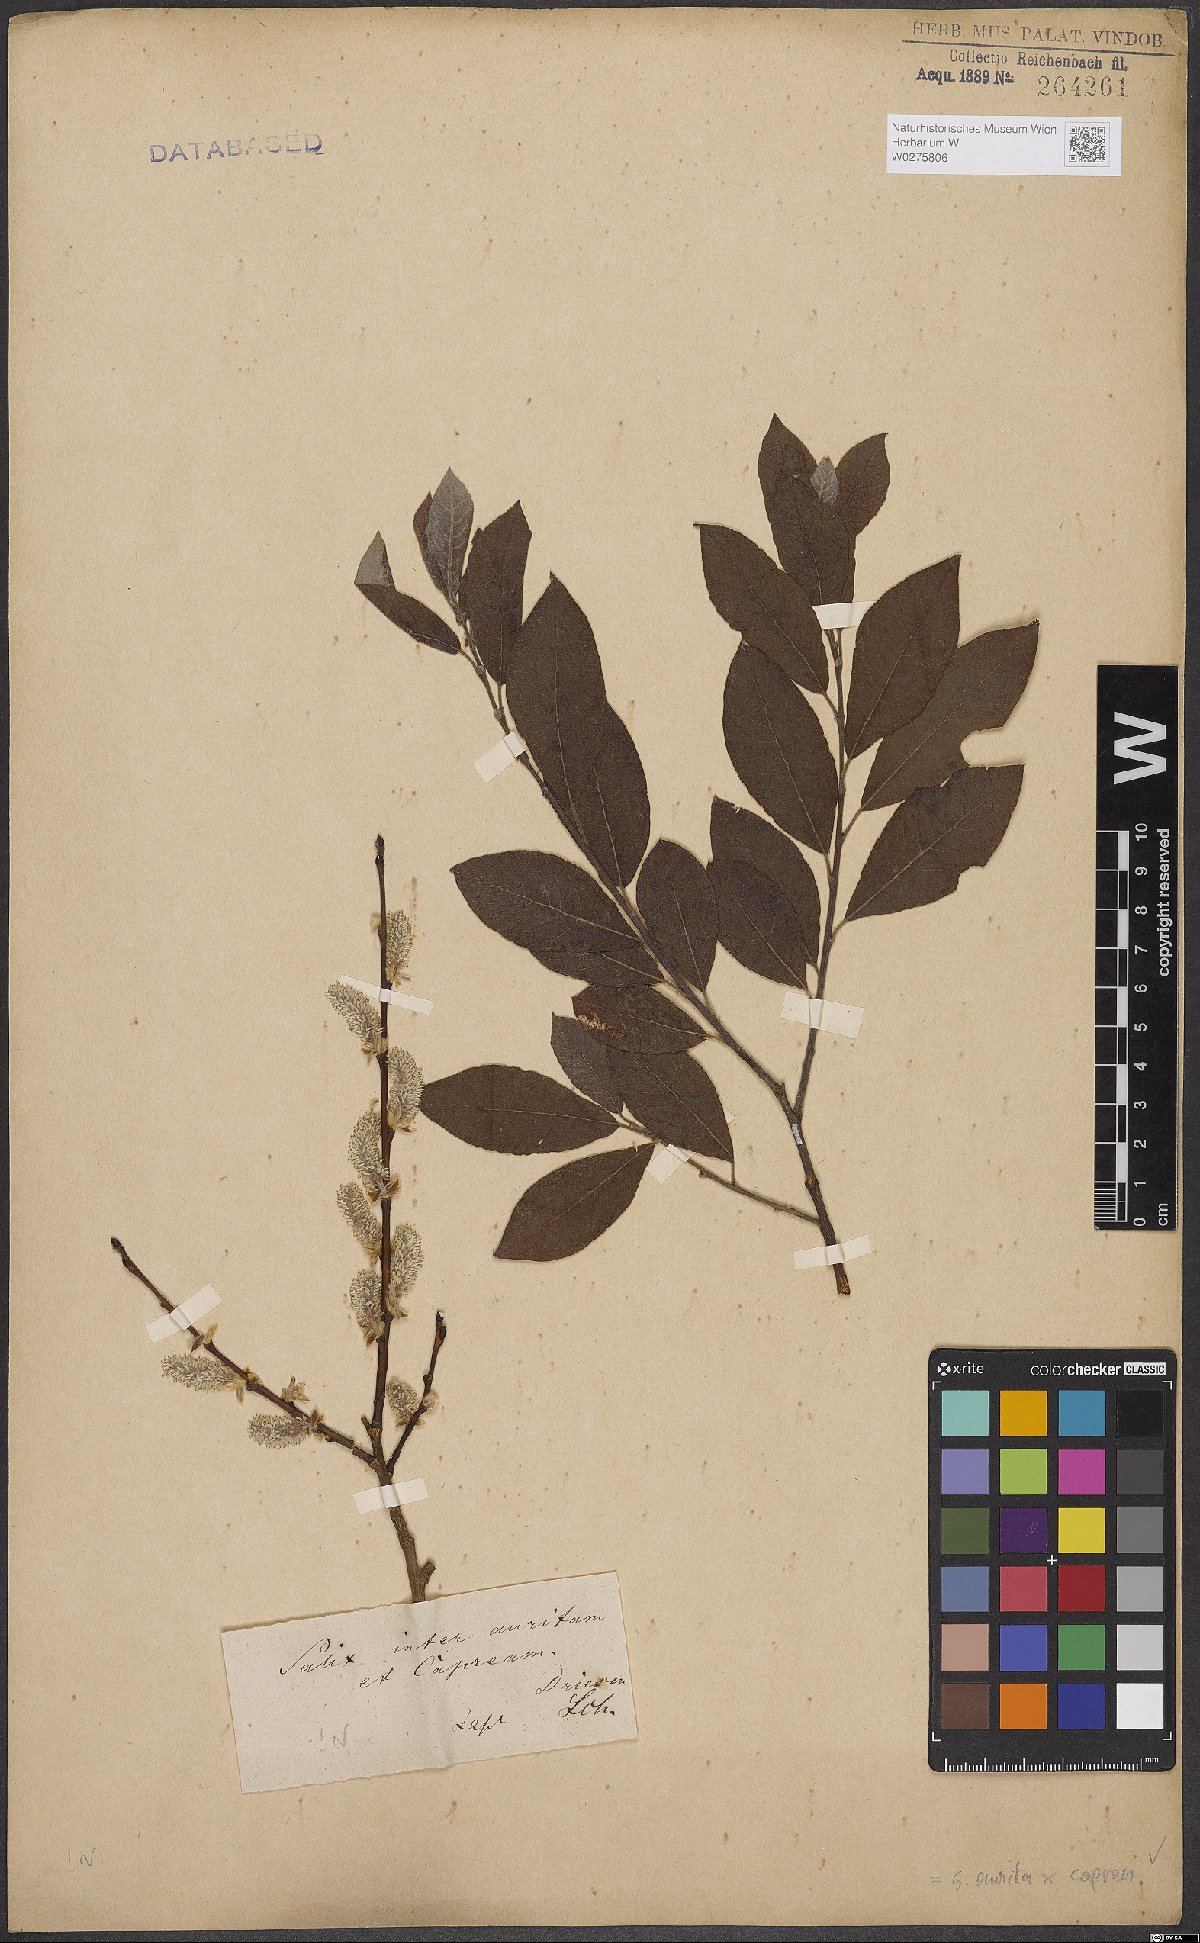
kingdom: Plantae
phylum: Tracheophyta
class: Magnoliopsida
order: Malpighiales
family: Salicaceae
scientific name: Salicaceae
